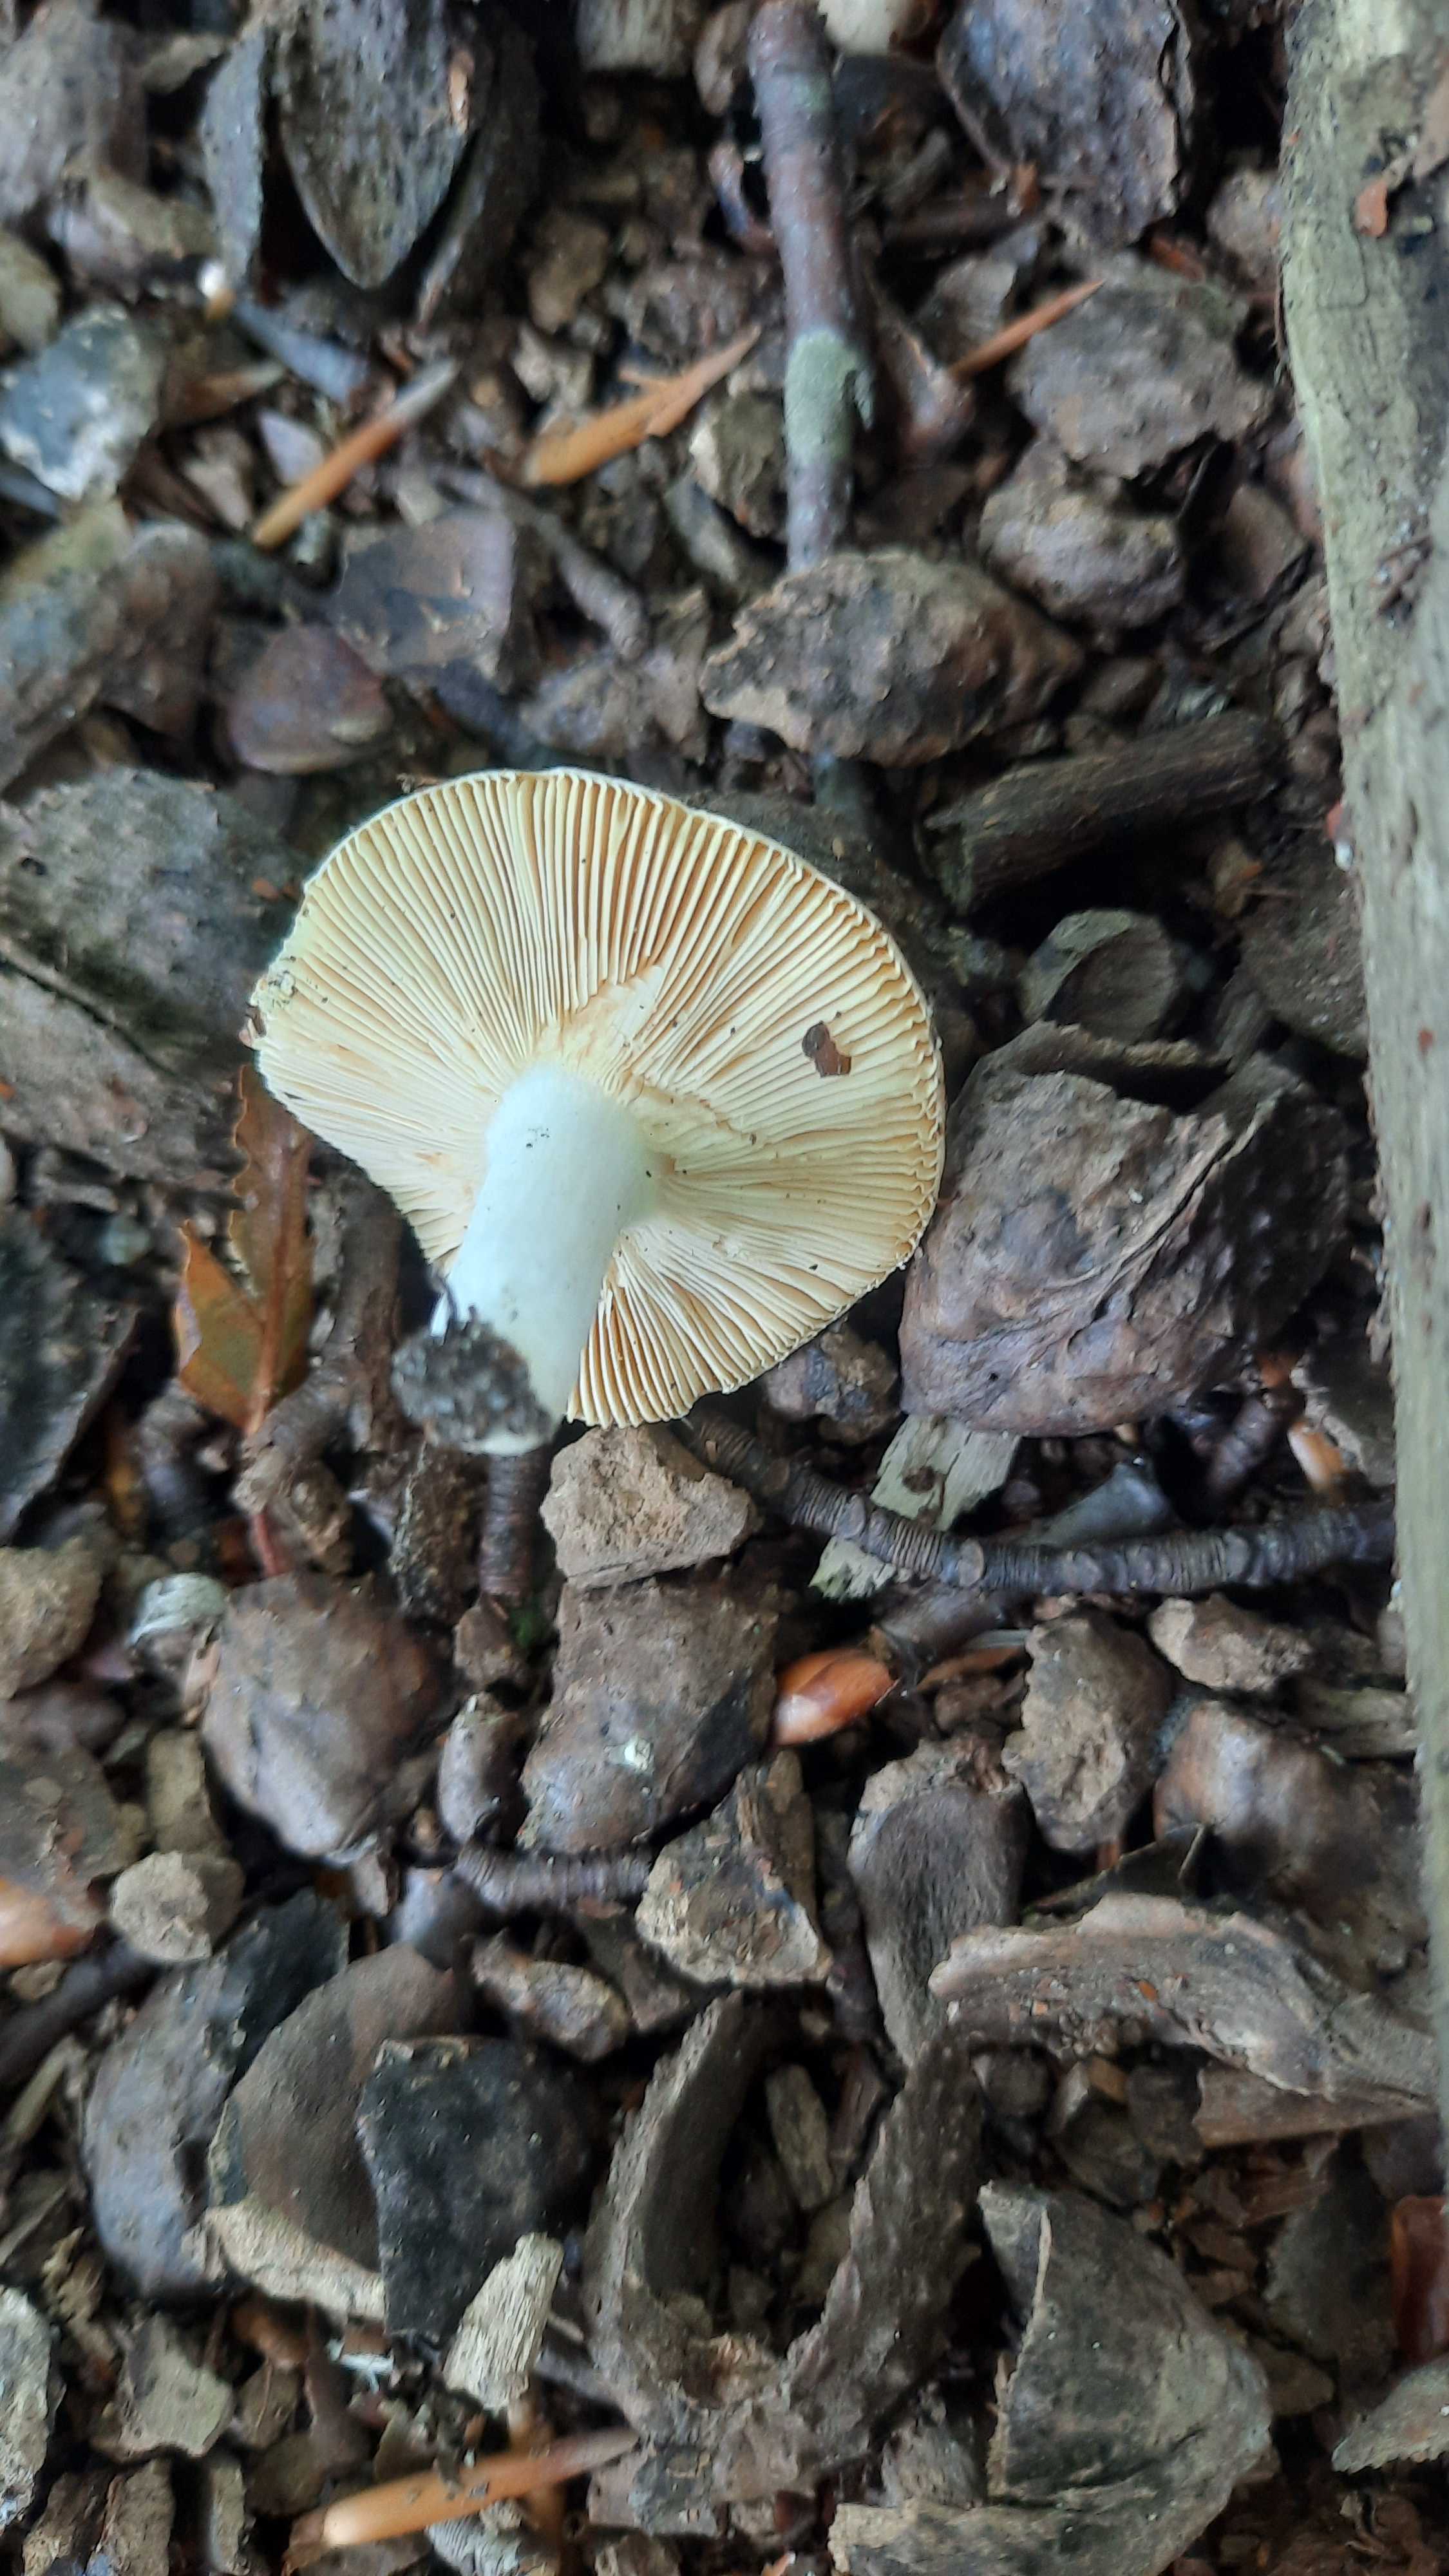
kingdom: Fungi
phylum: Basidiomycota
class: Agaricomycetes
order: Russulales
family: Russulaceae
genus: Russula
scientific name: Russula risigallina
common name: abrikos-skørhat
